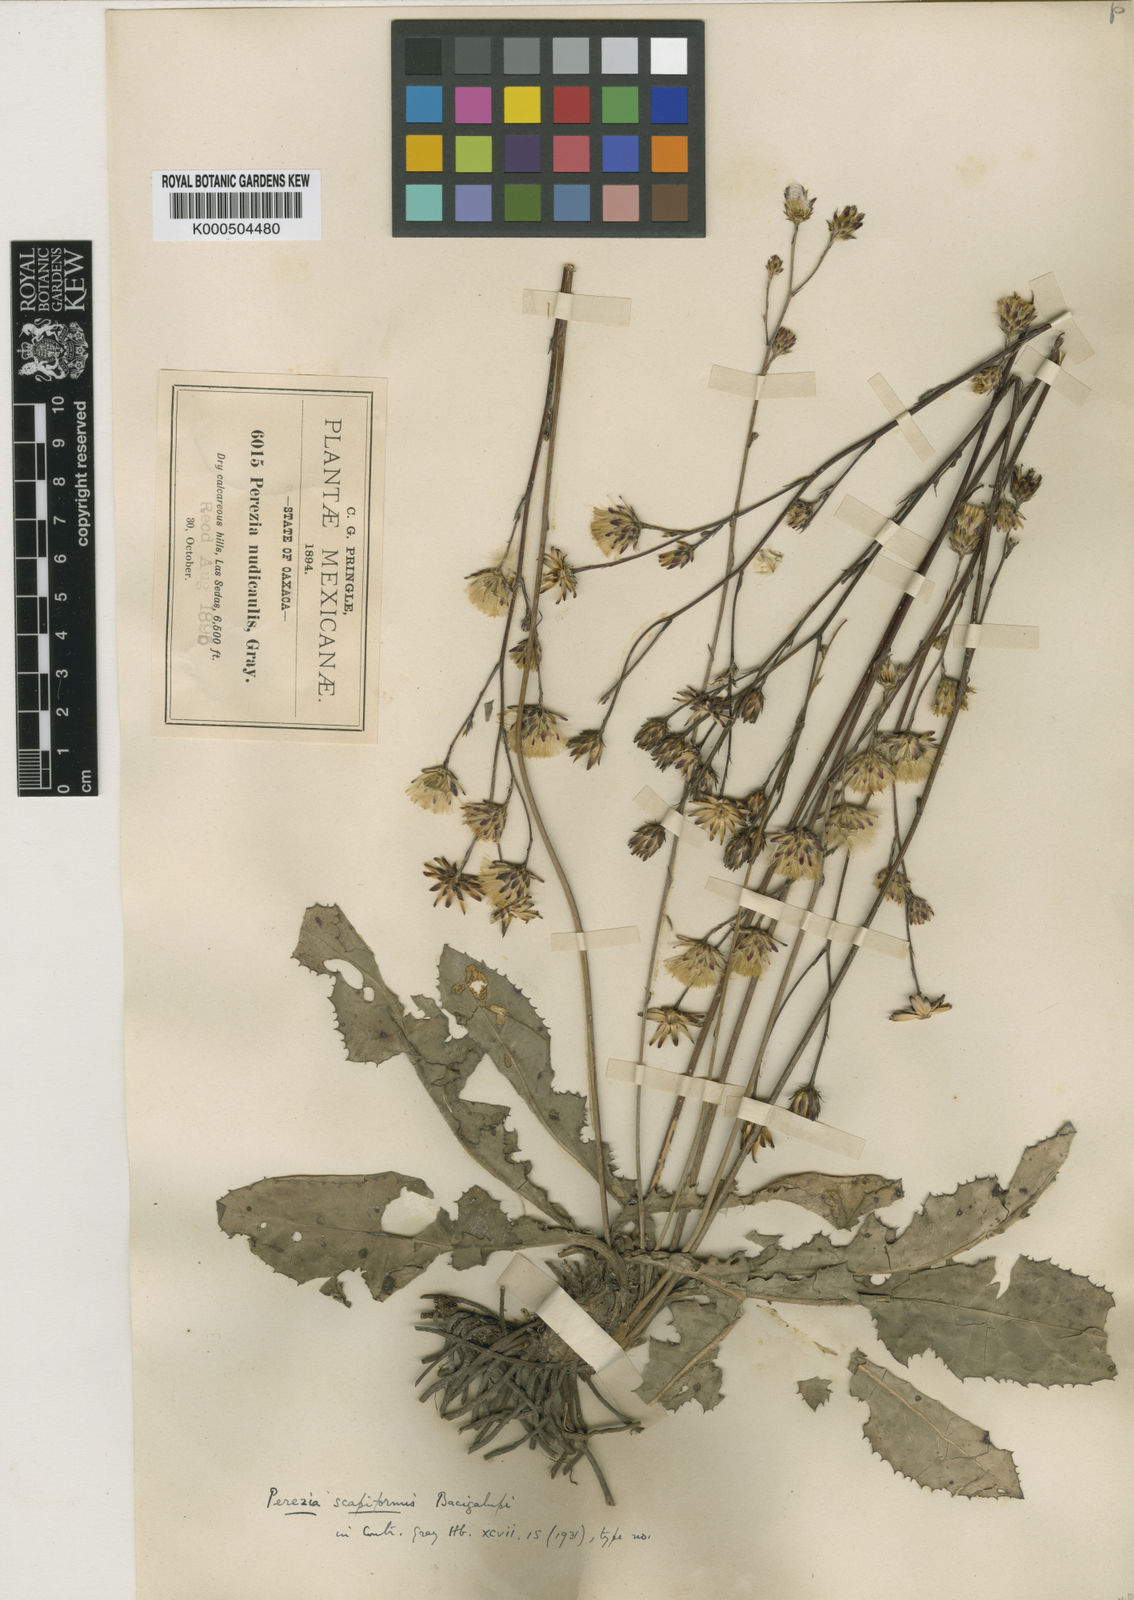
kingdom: Plantae
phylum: Tracheophyta
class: Magnoliopsida
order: Asterales
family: Asteraceae
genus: Acourtia
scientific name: Acourtia scapiformis
